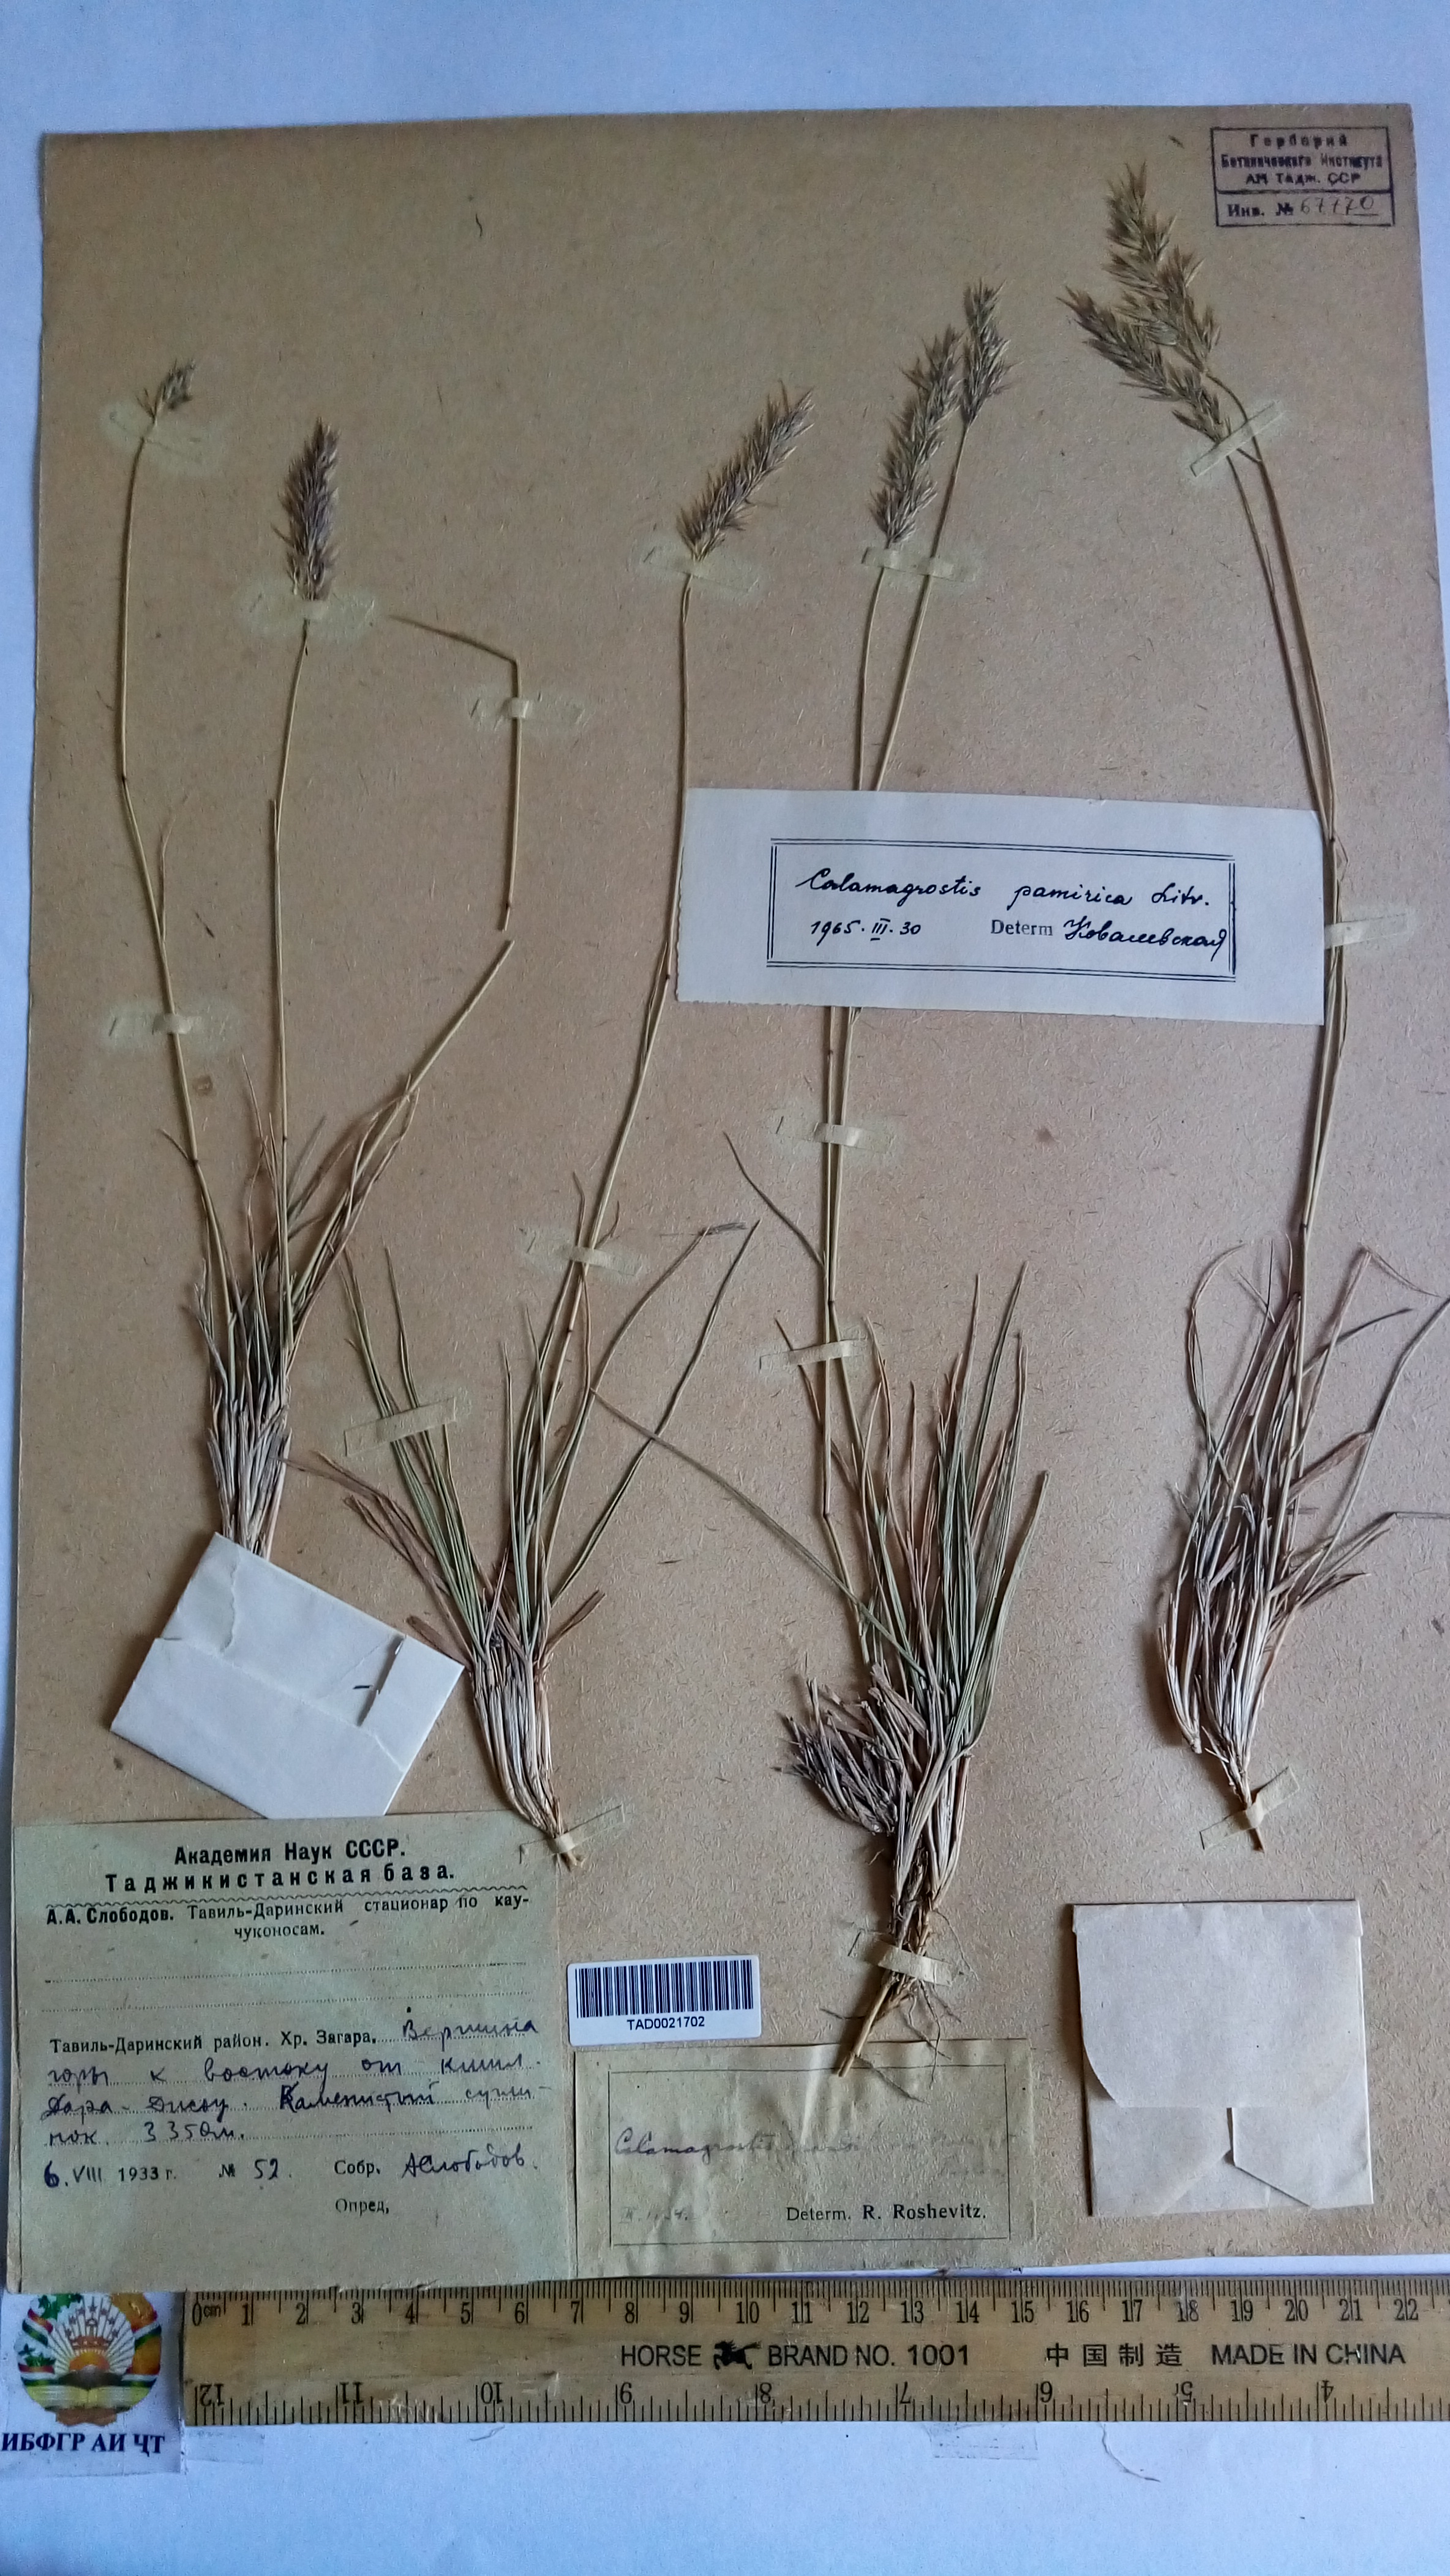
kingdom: Plantae
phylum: Tracheophyta
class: Liliopsida
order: Poales
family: Poaceae
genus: Calamagrostis
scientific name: Calamagrostis holciformis
